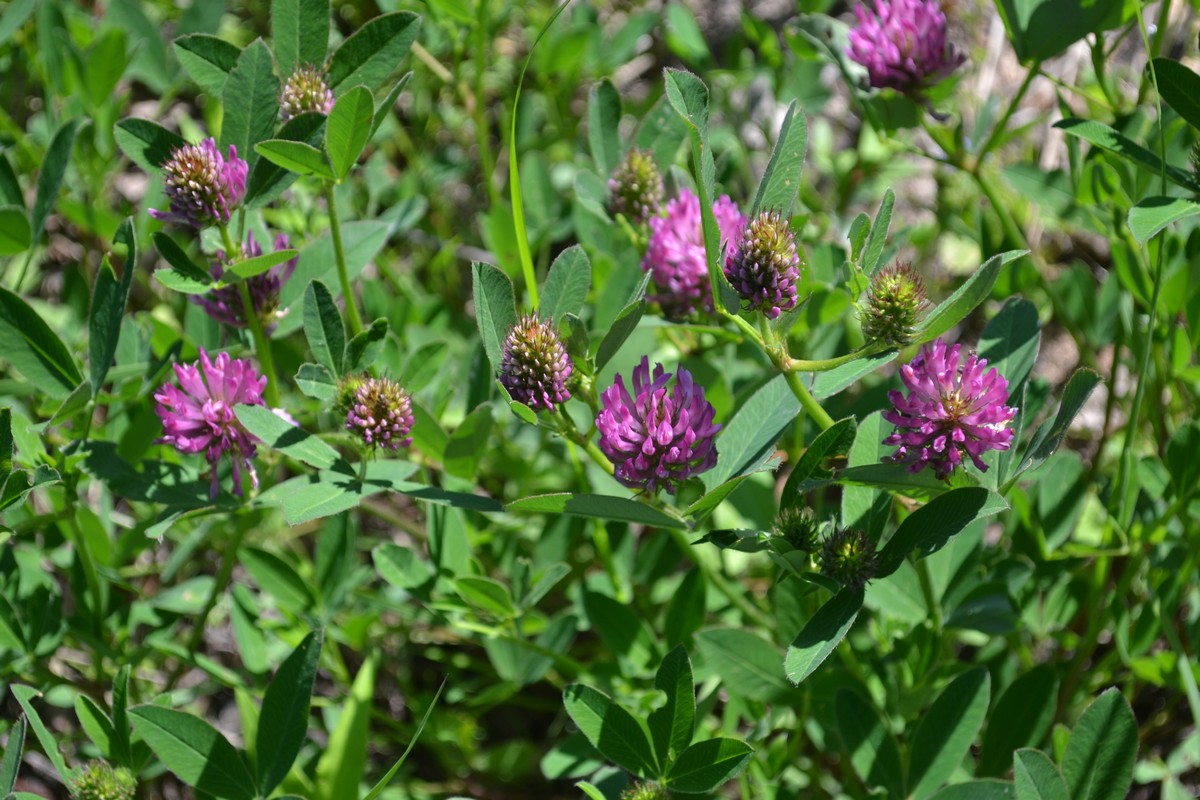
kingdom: Plantae
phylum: Tracheophyta
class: Magnoliopsida
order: Fabales
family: Fabaceae
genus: Trifolium
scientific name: Trifolium medium
